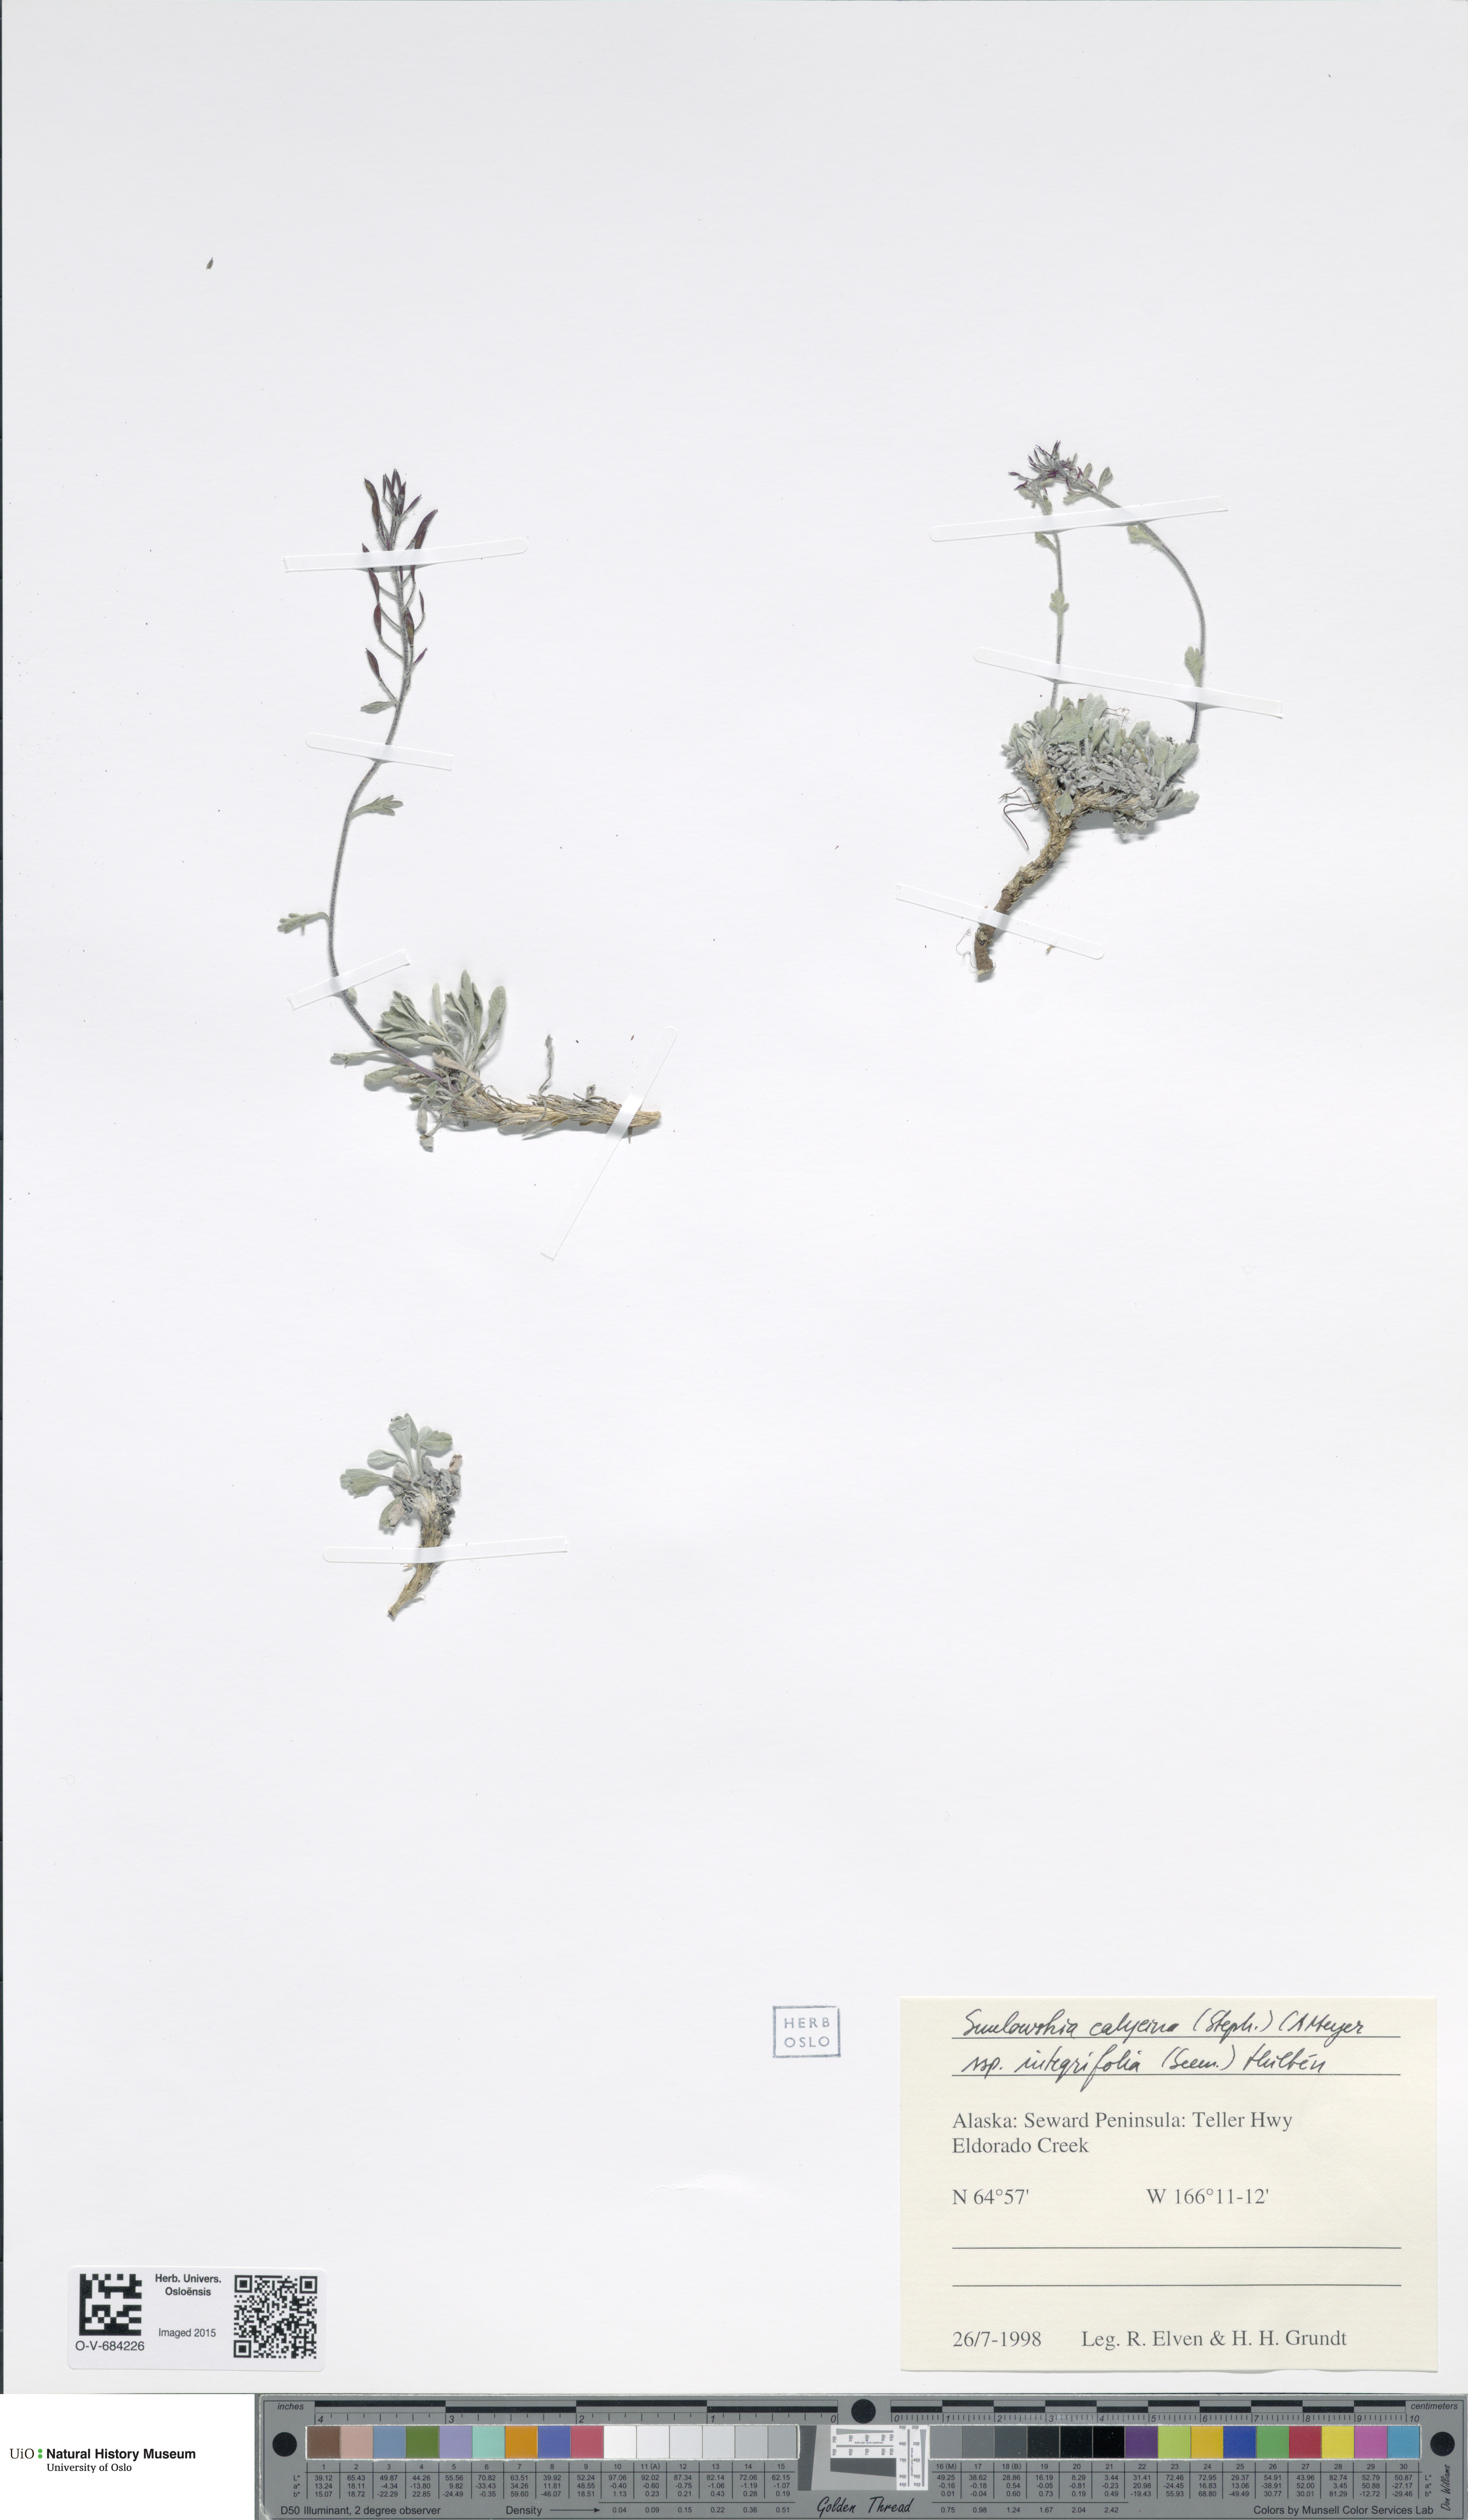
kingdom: Plantae
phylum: Tracheophyta
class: Magnoliopsida
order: Brassicales
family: Brassicaceae
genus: Smelowskia
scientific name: Smelowskia porsildii
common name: Jurtzev's smelowskia
